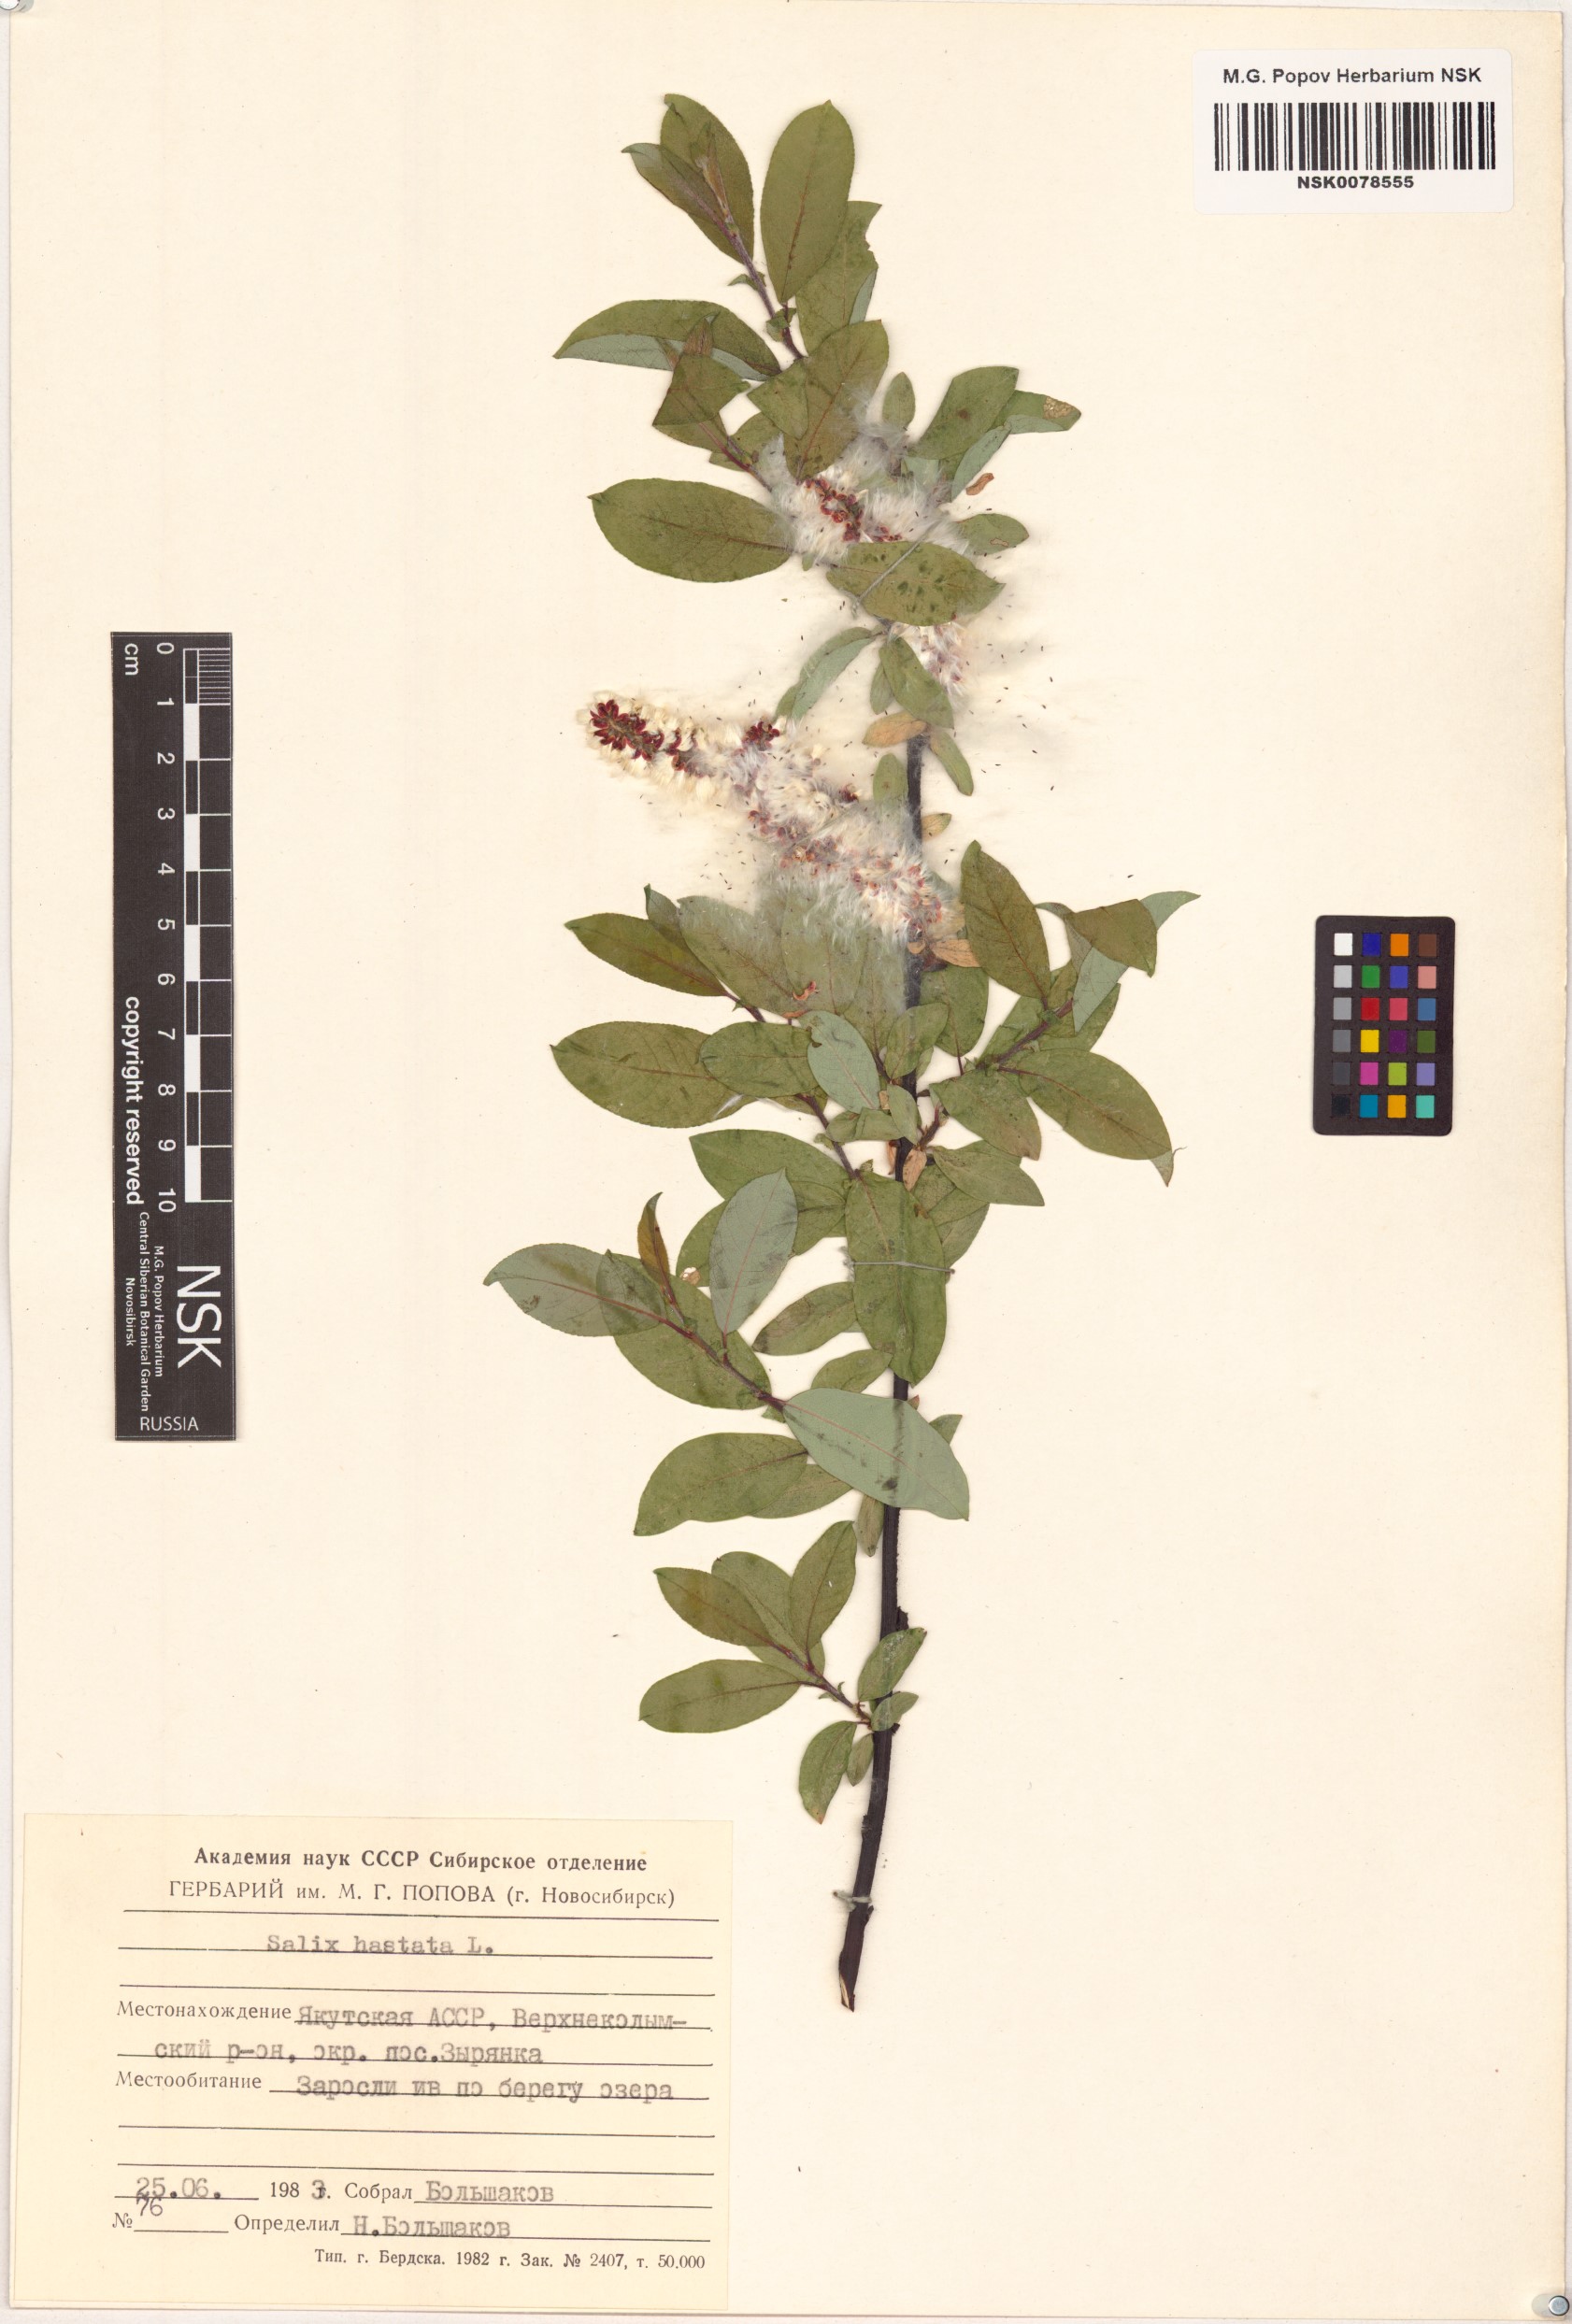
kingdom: Plantae
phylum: Tracheophyta
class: Magnoliopsida
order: Malpighiales
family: Salicaceae
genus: Salix
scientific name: Salix hastata
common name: Halberd willow
